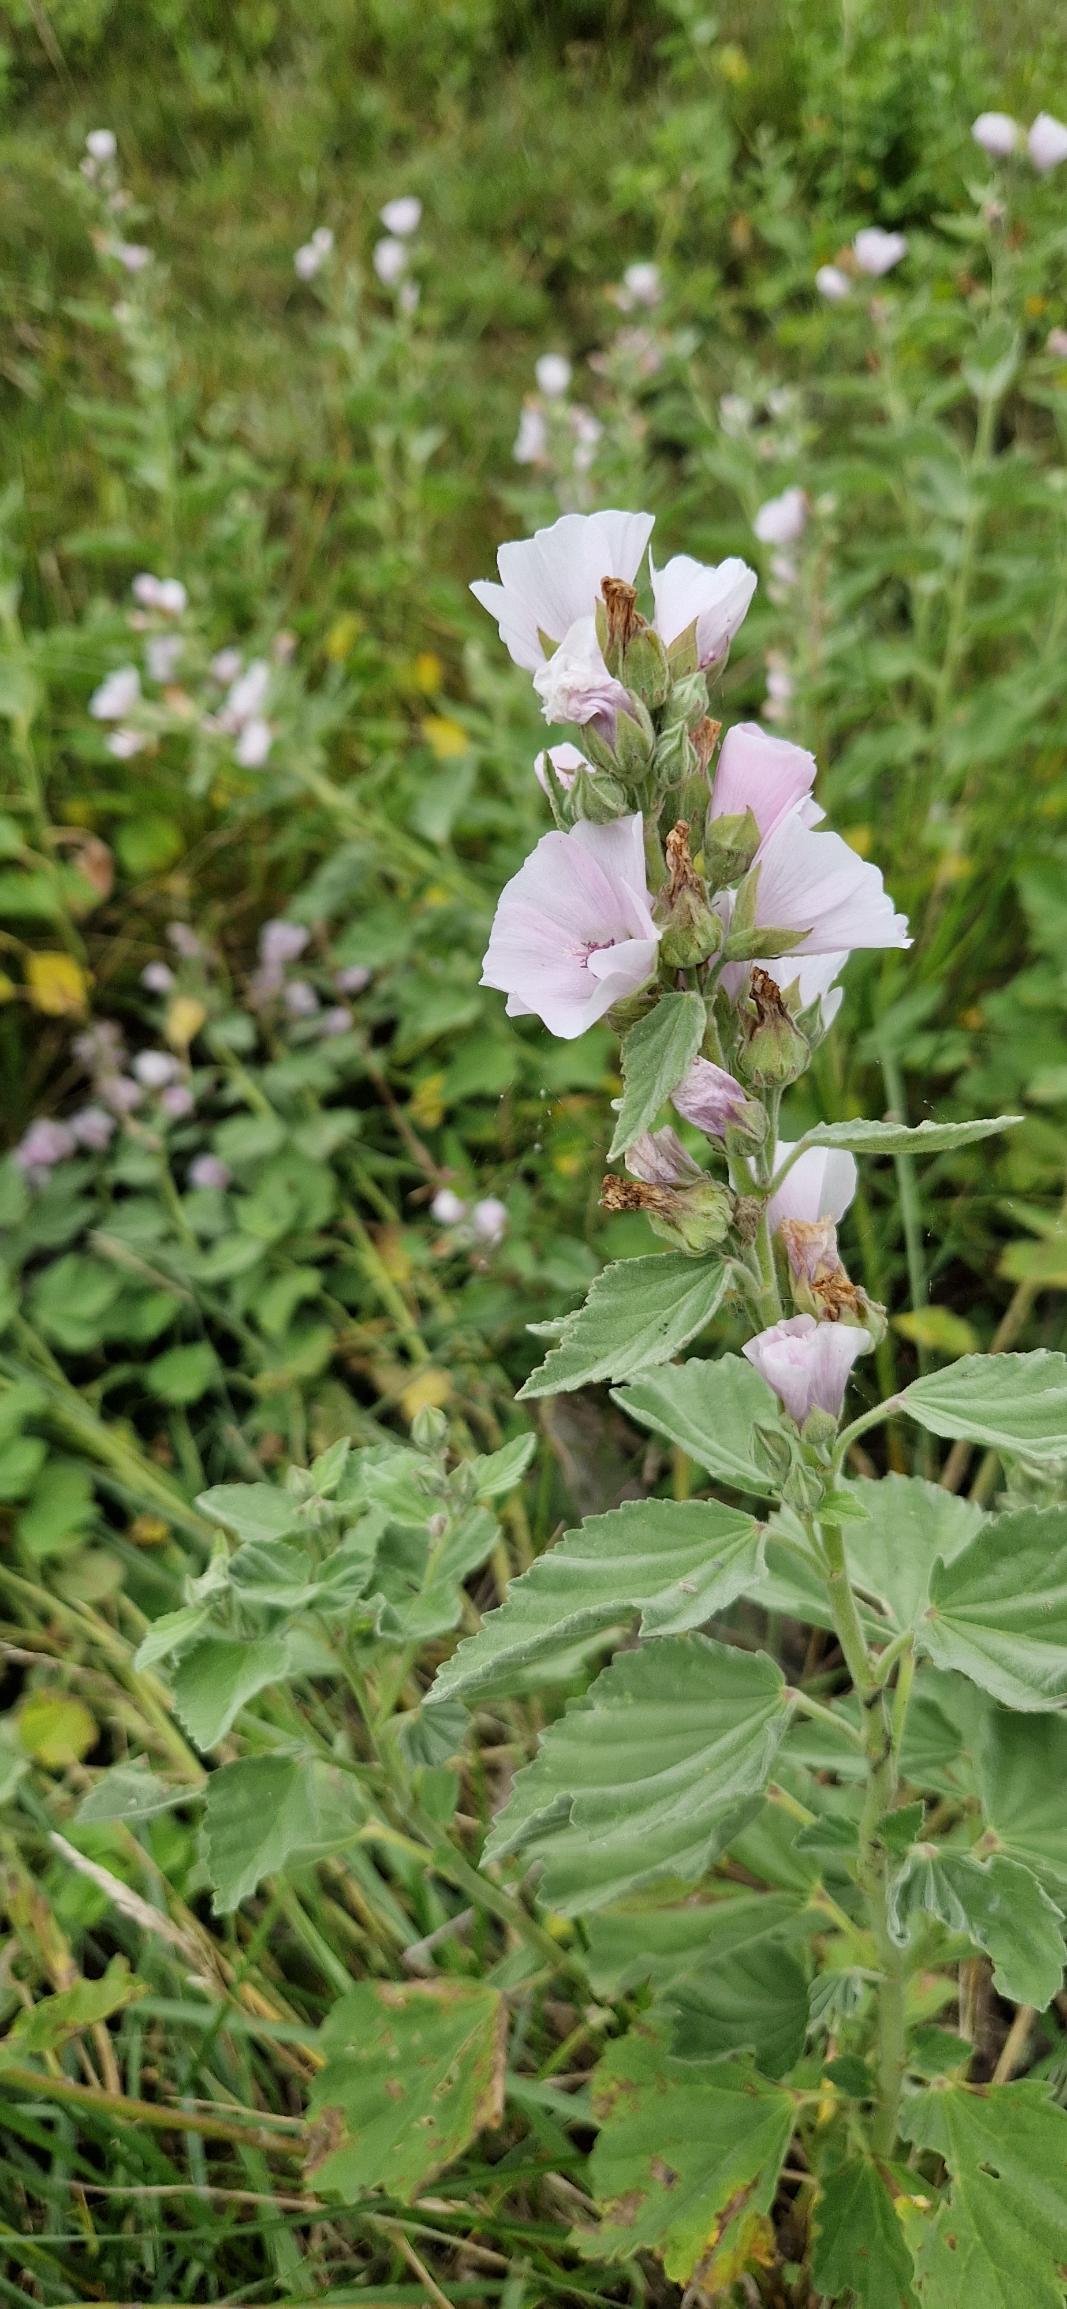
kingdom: Plantae
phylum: Tracheophyta
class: Magnoliopsida
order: Malvales
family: Malvaceae
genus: Althaea
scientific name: Althaea officinalis
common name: Lægestokrose
